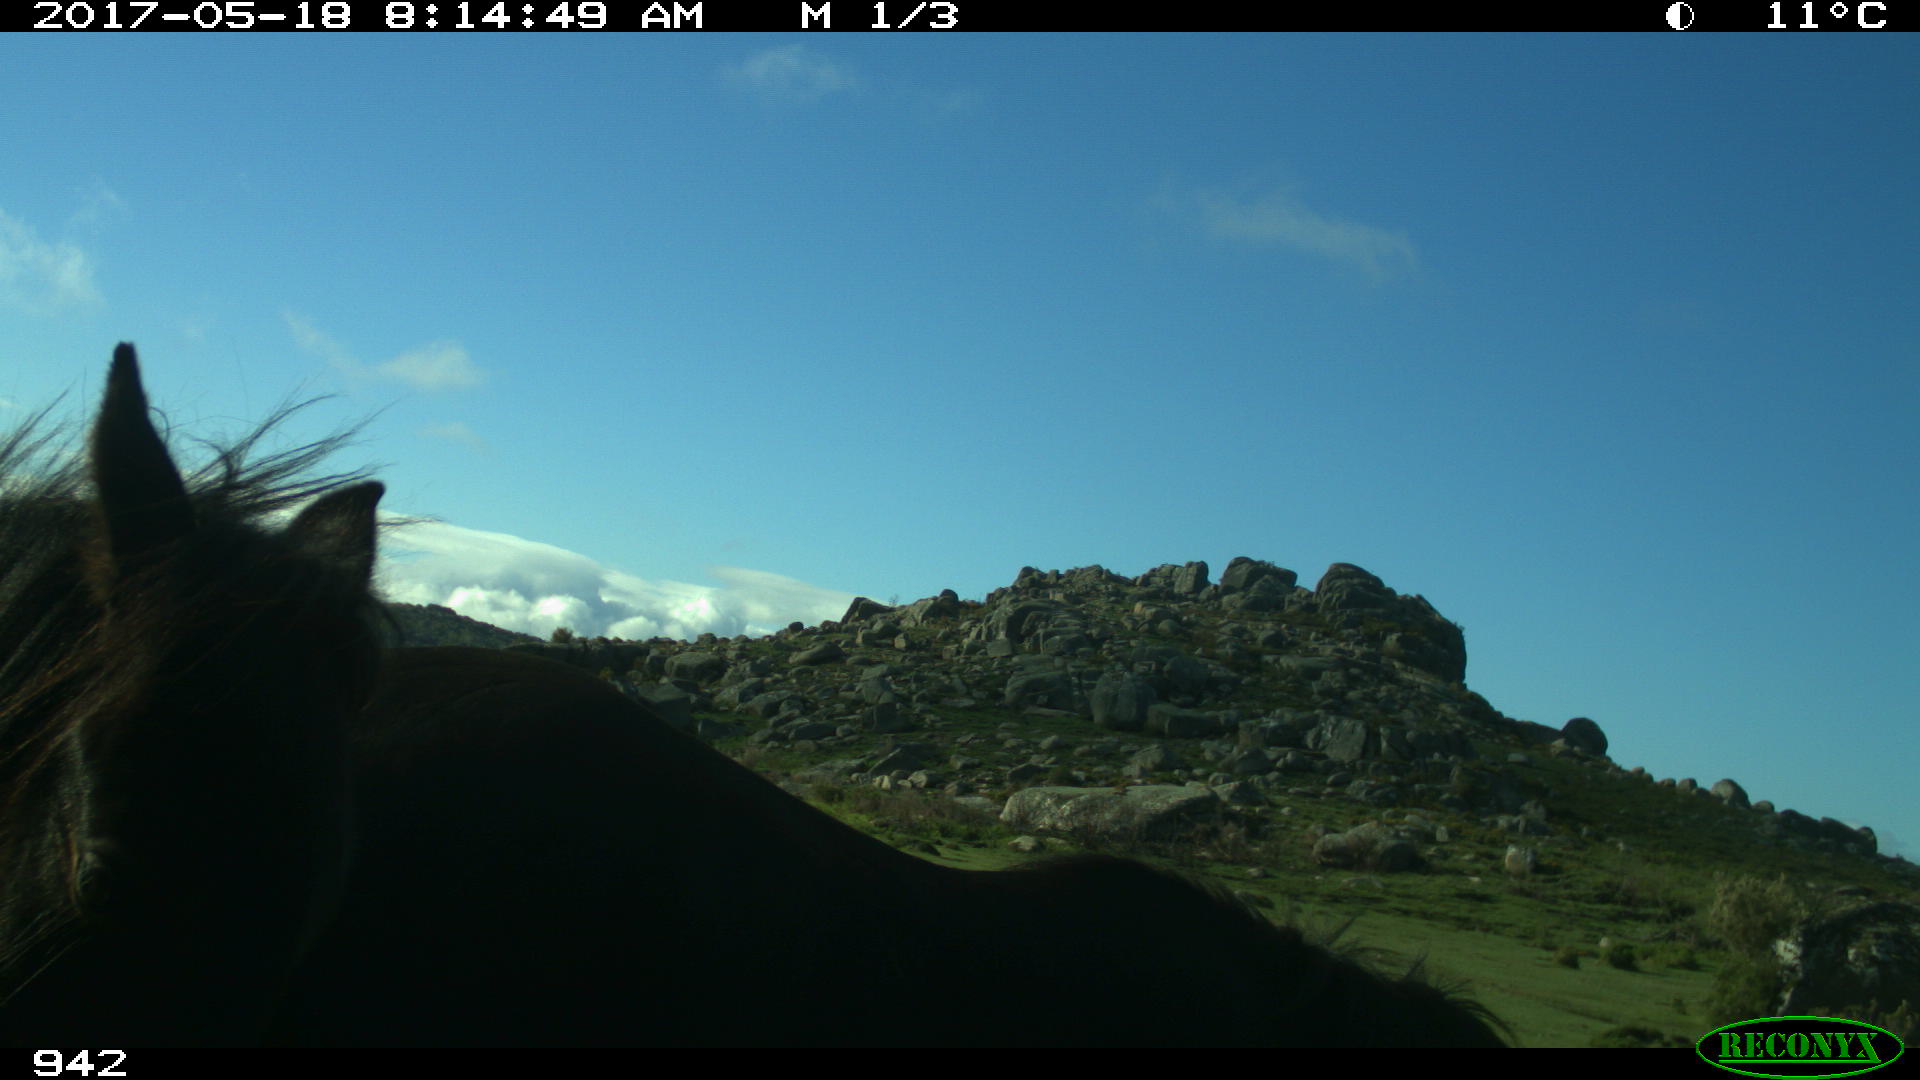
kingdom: Animalia
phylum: Chordata
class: Mammalia
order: Perissodactyla
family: Equidae
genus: Equus
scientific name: Equus caballus
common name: Horse
